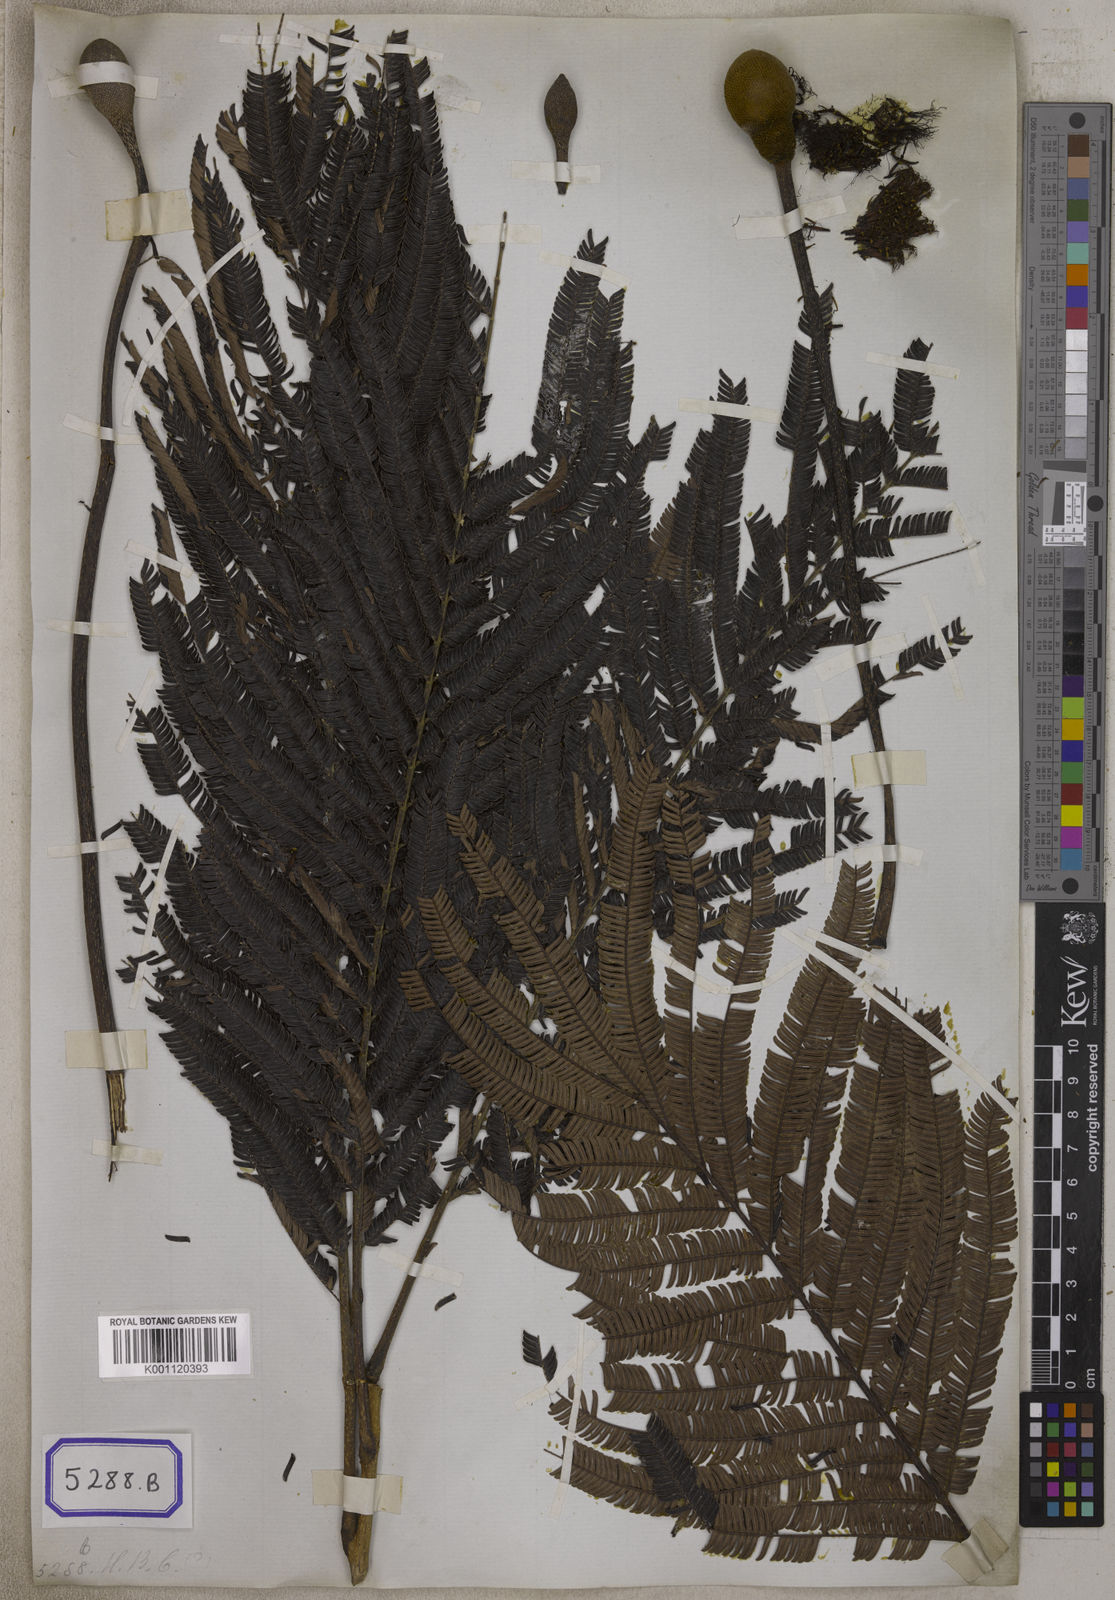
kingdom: Plantae
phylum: Tracheophyta
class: Magnoliopsida
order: Fabales
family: Fabaceae
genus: Parkia
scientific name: Parkia timoriana
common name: Legume
